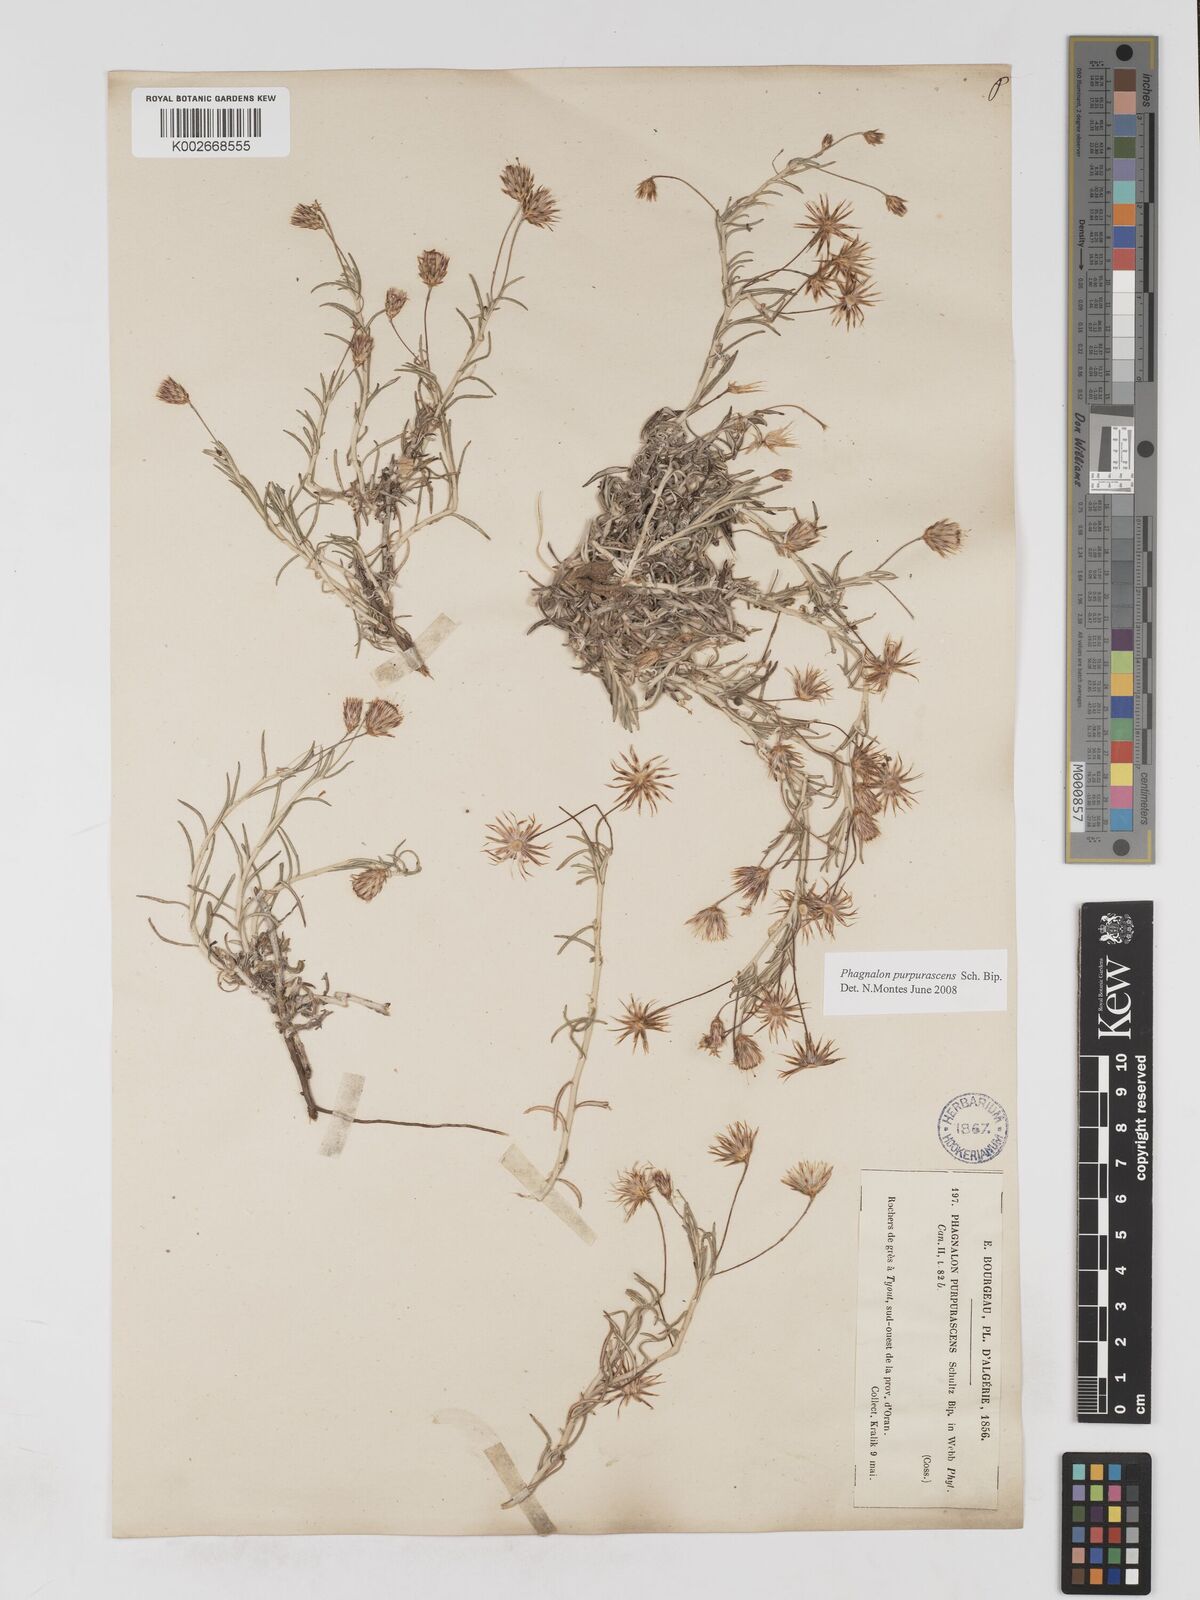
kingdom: Plantae
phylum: Tracheophyta
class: Magnoliopsida
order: Asterales
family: Asteraceae
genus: Phagnalon
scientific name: Phagnalon purpurascens
